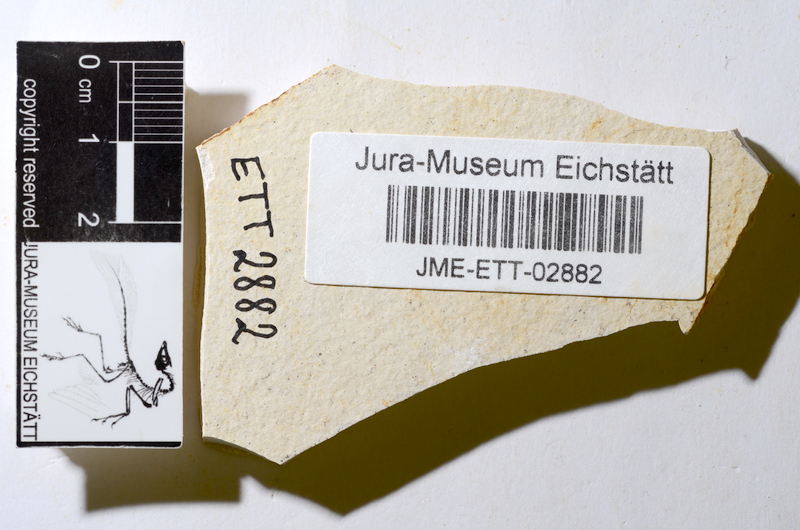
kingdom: Animalia
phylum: Chordata
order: Salmoniformes
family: Orthogonikleithridae
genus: Orthogonikleithrus
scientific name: Orthogonikleithrus hoelli
